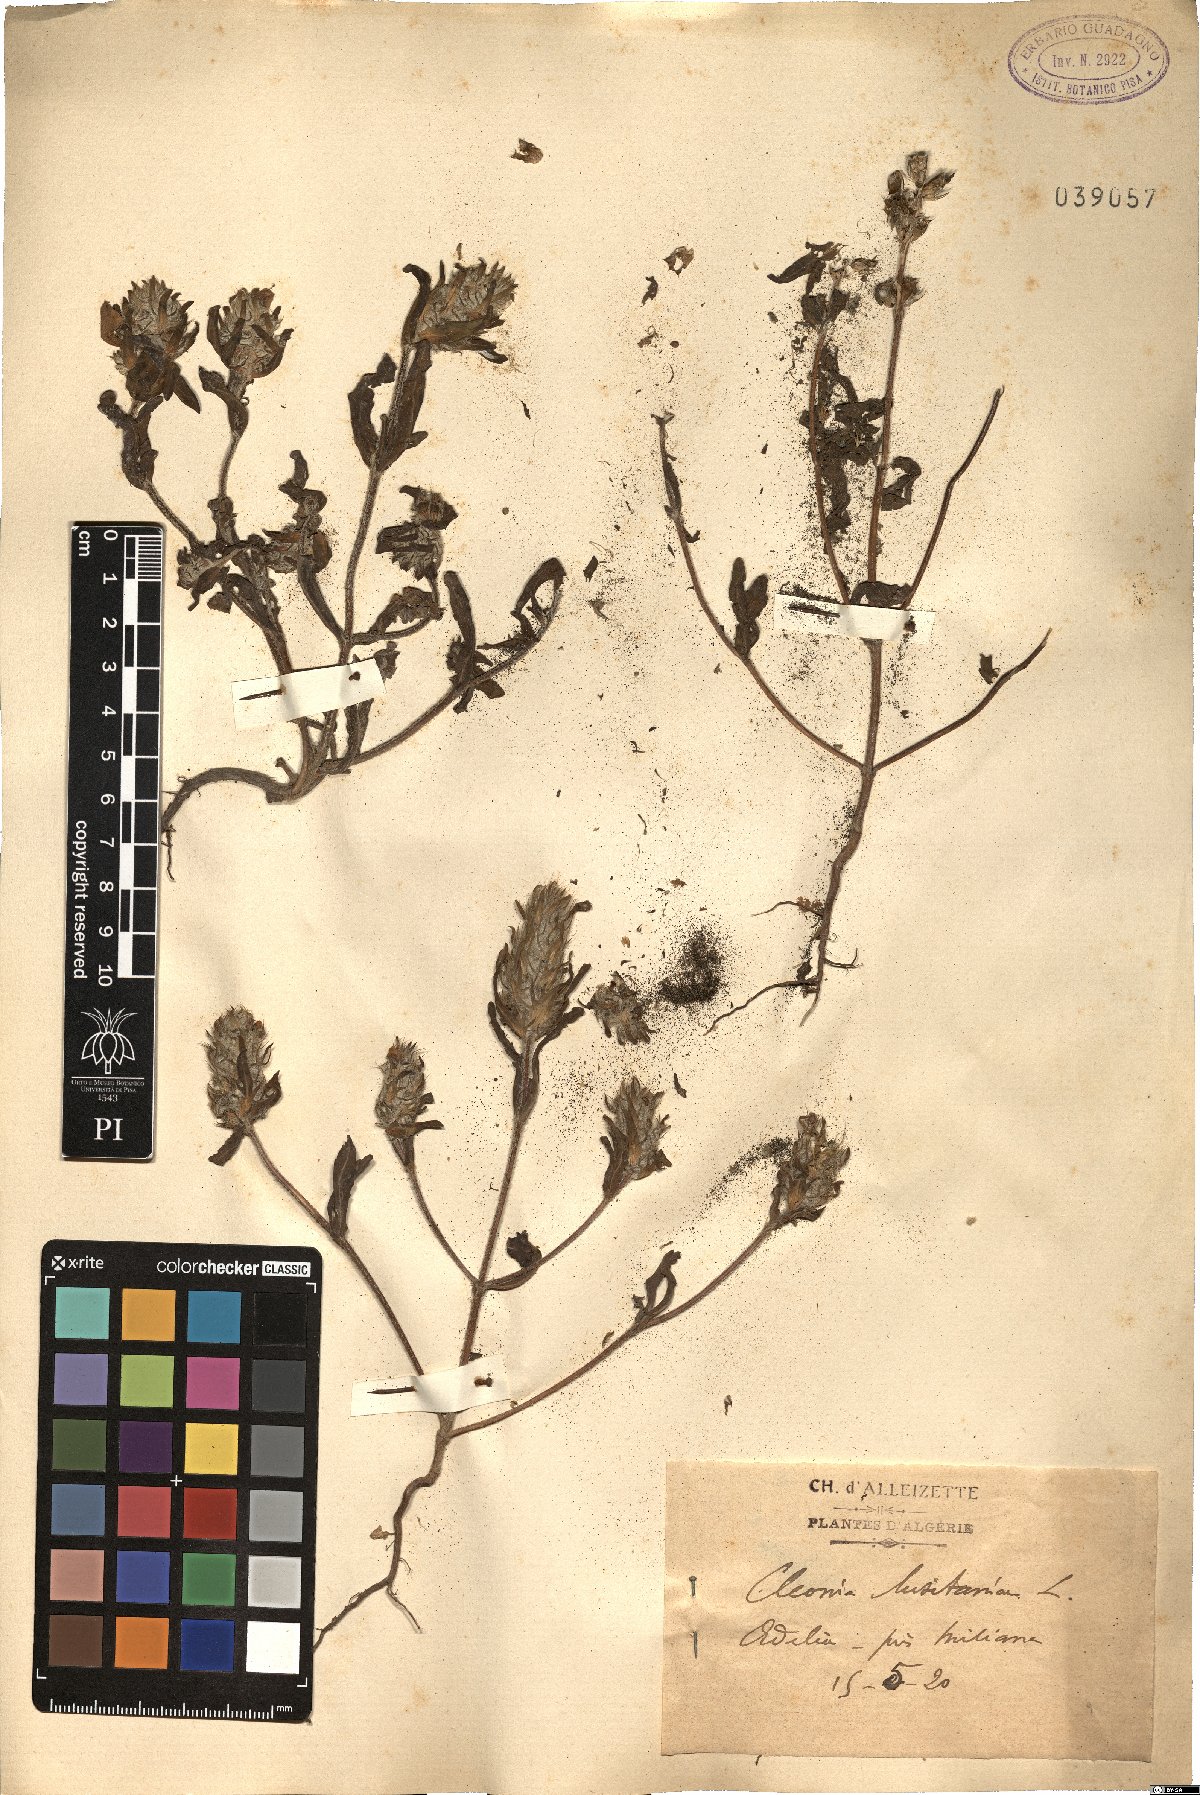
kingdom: Plantae
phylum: Tracheophyta
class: Magnoliopsida
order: Lamiales
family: Lamiaceae
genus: Cleonia
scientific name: Cleonia lusitanica
